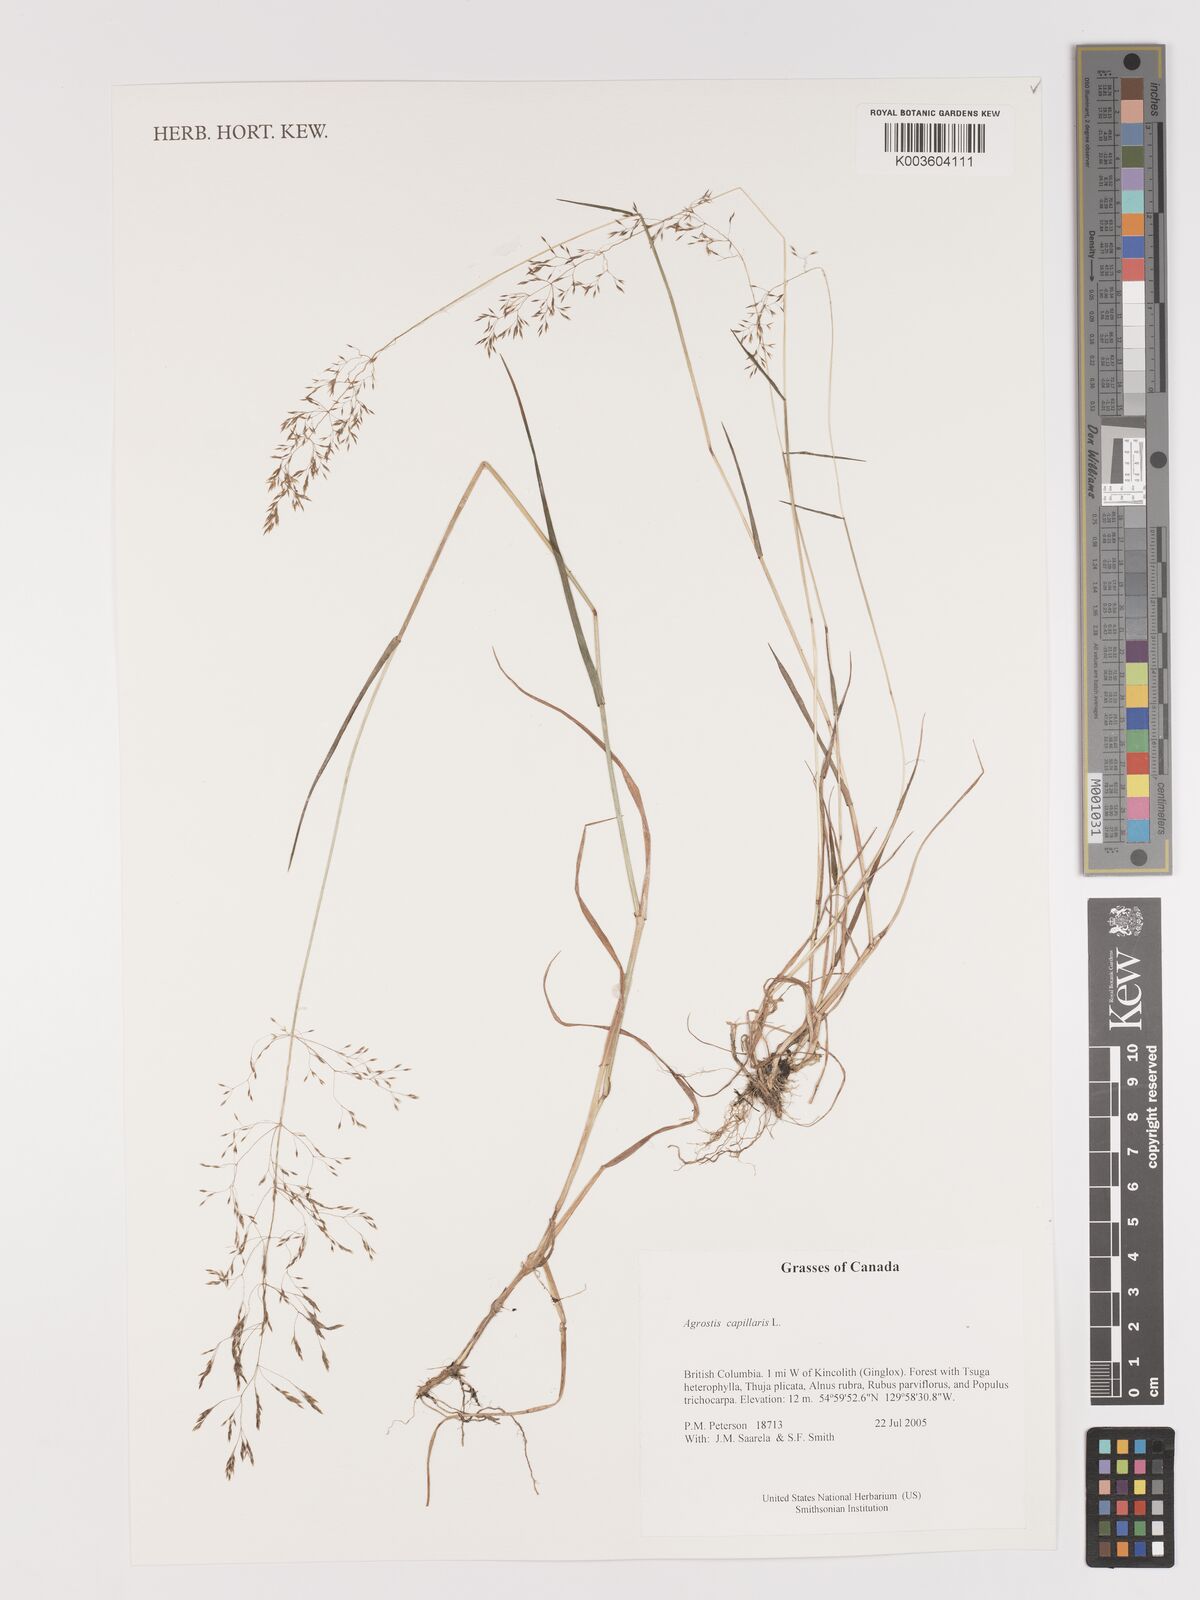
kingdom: Plantae
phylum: Tracheophyta
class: Liliopsida
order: Poales
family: Poaceae
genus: Agrostis
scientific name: Agrostis capillaris
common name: Colonial bentgrass
